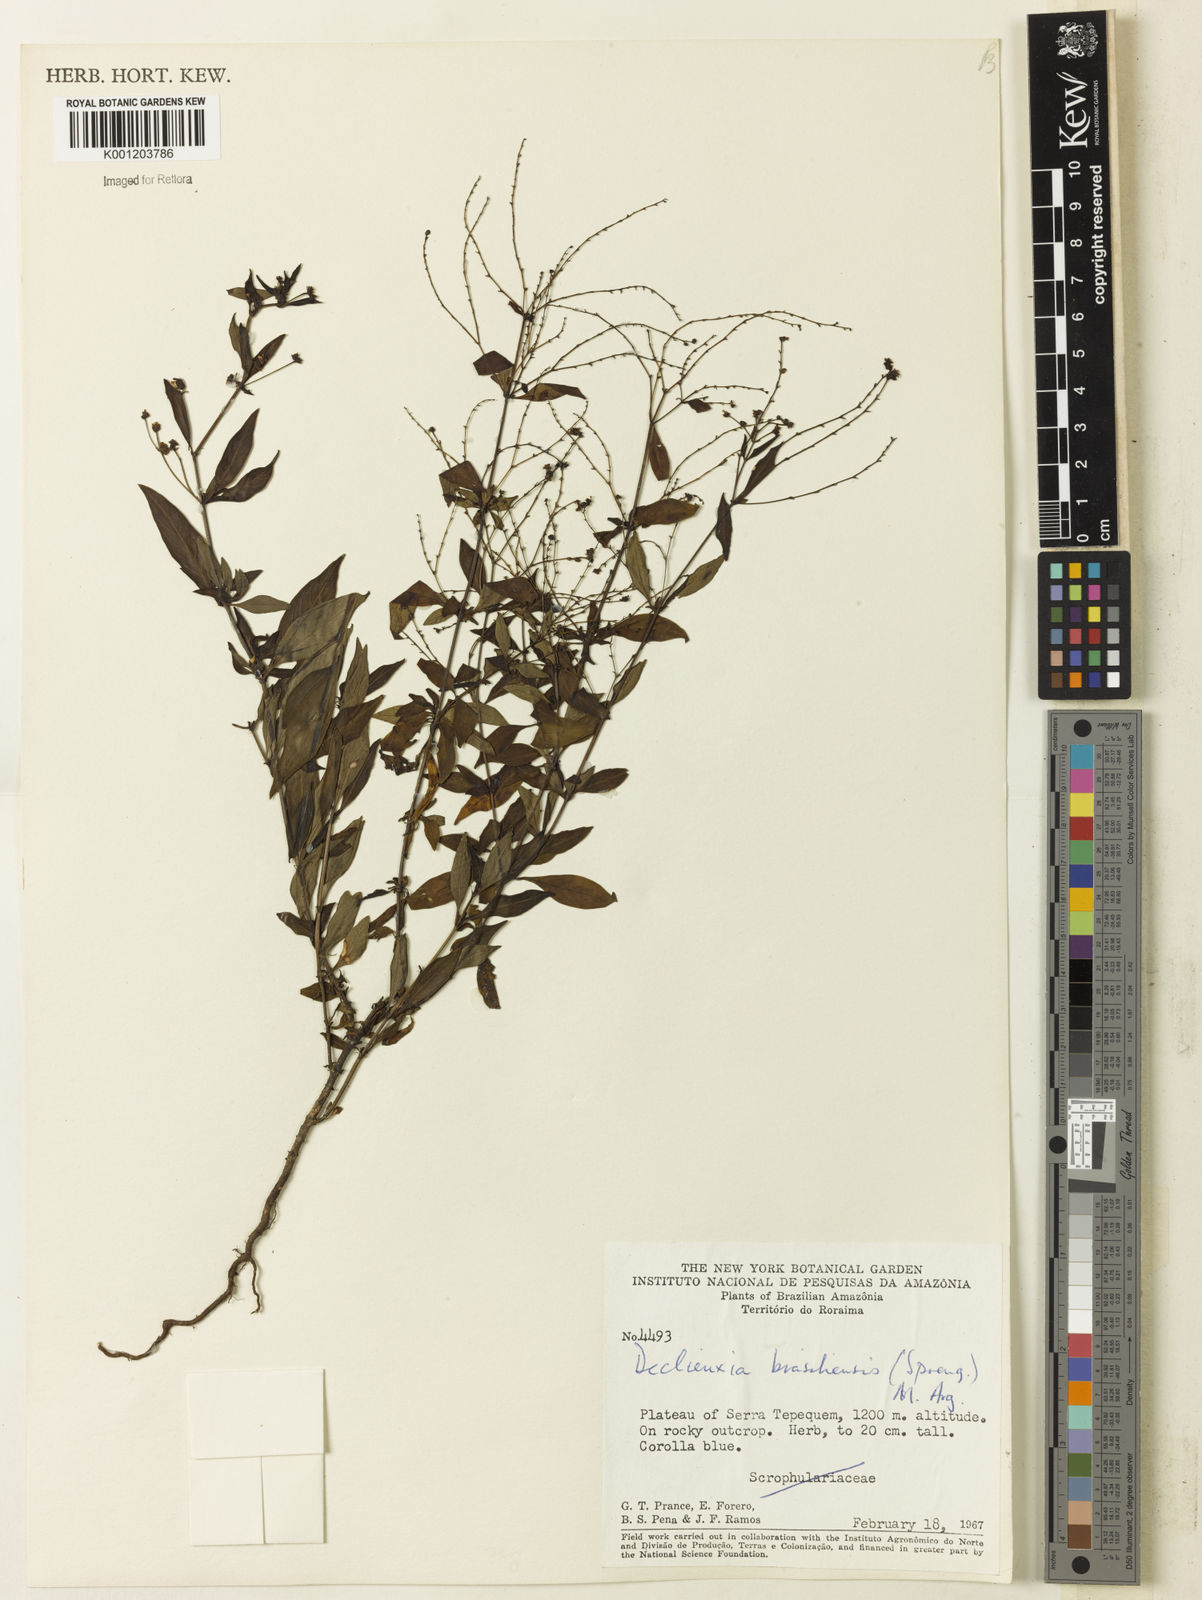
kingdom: Plantae
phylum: Tracheophyta
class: Magnoliopsida
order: Gentianales
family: Rubiaceae
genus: Declieuxia
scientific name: Declieuxia tenuiflora
